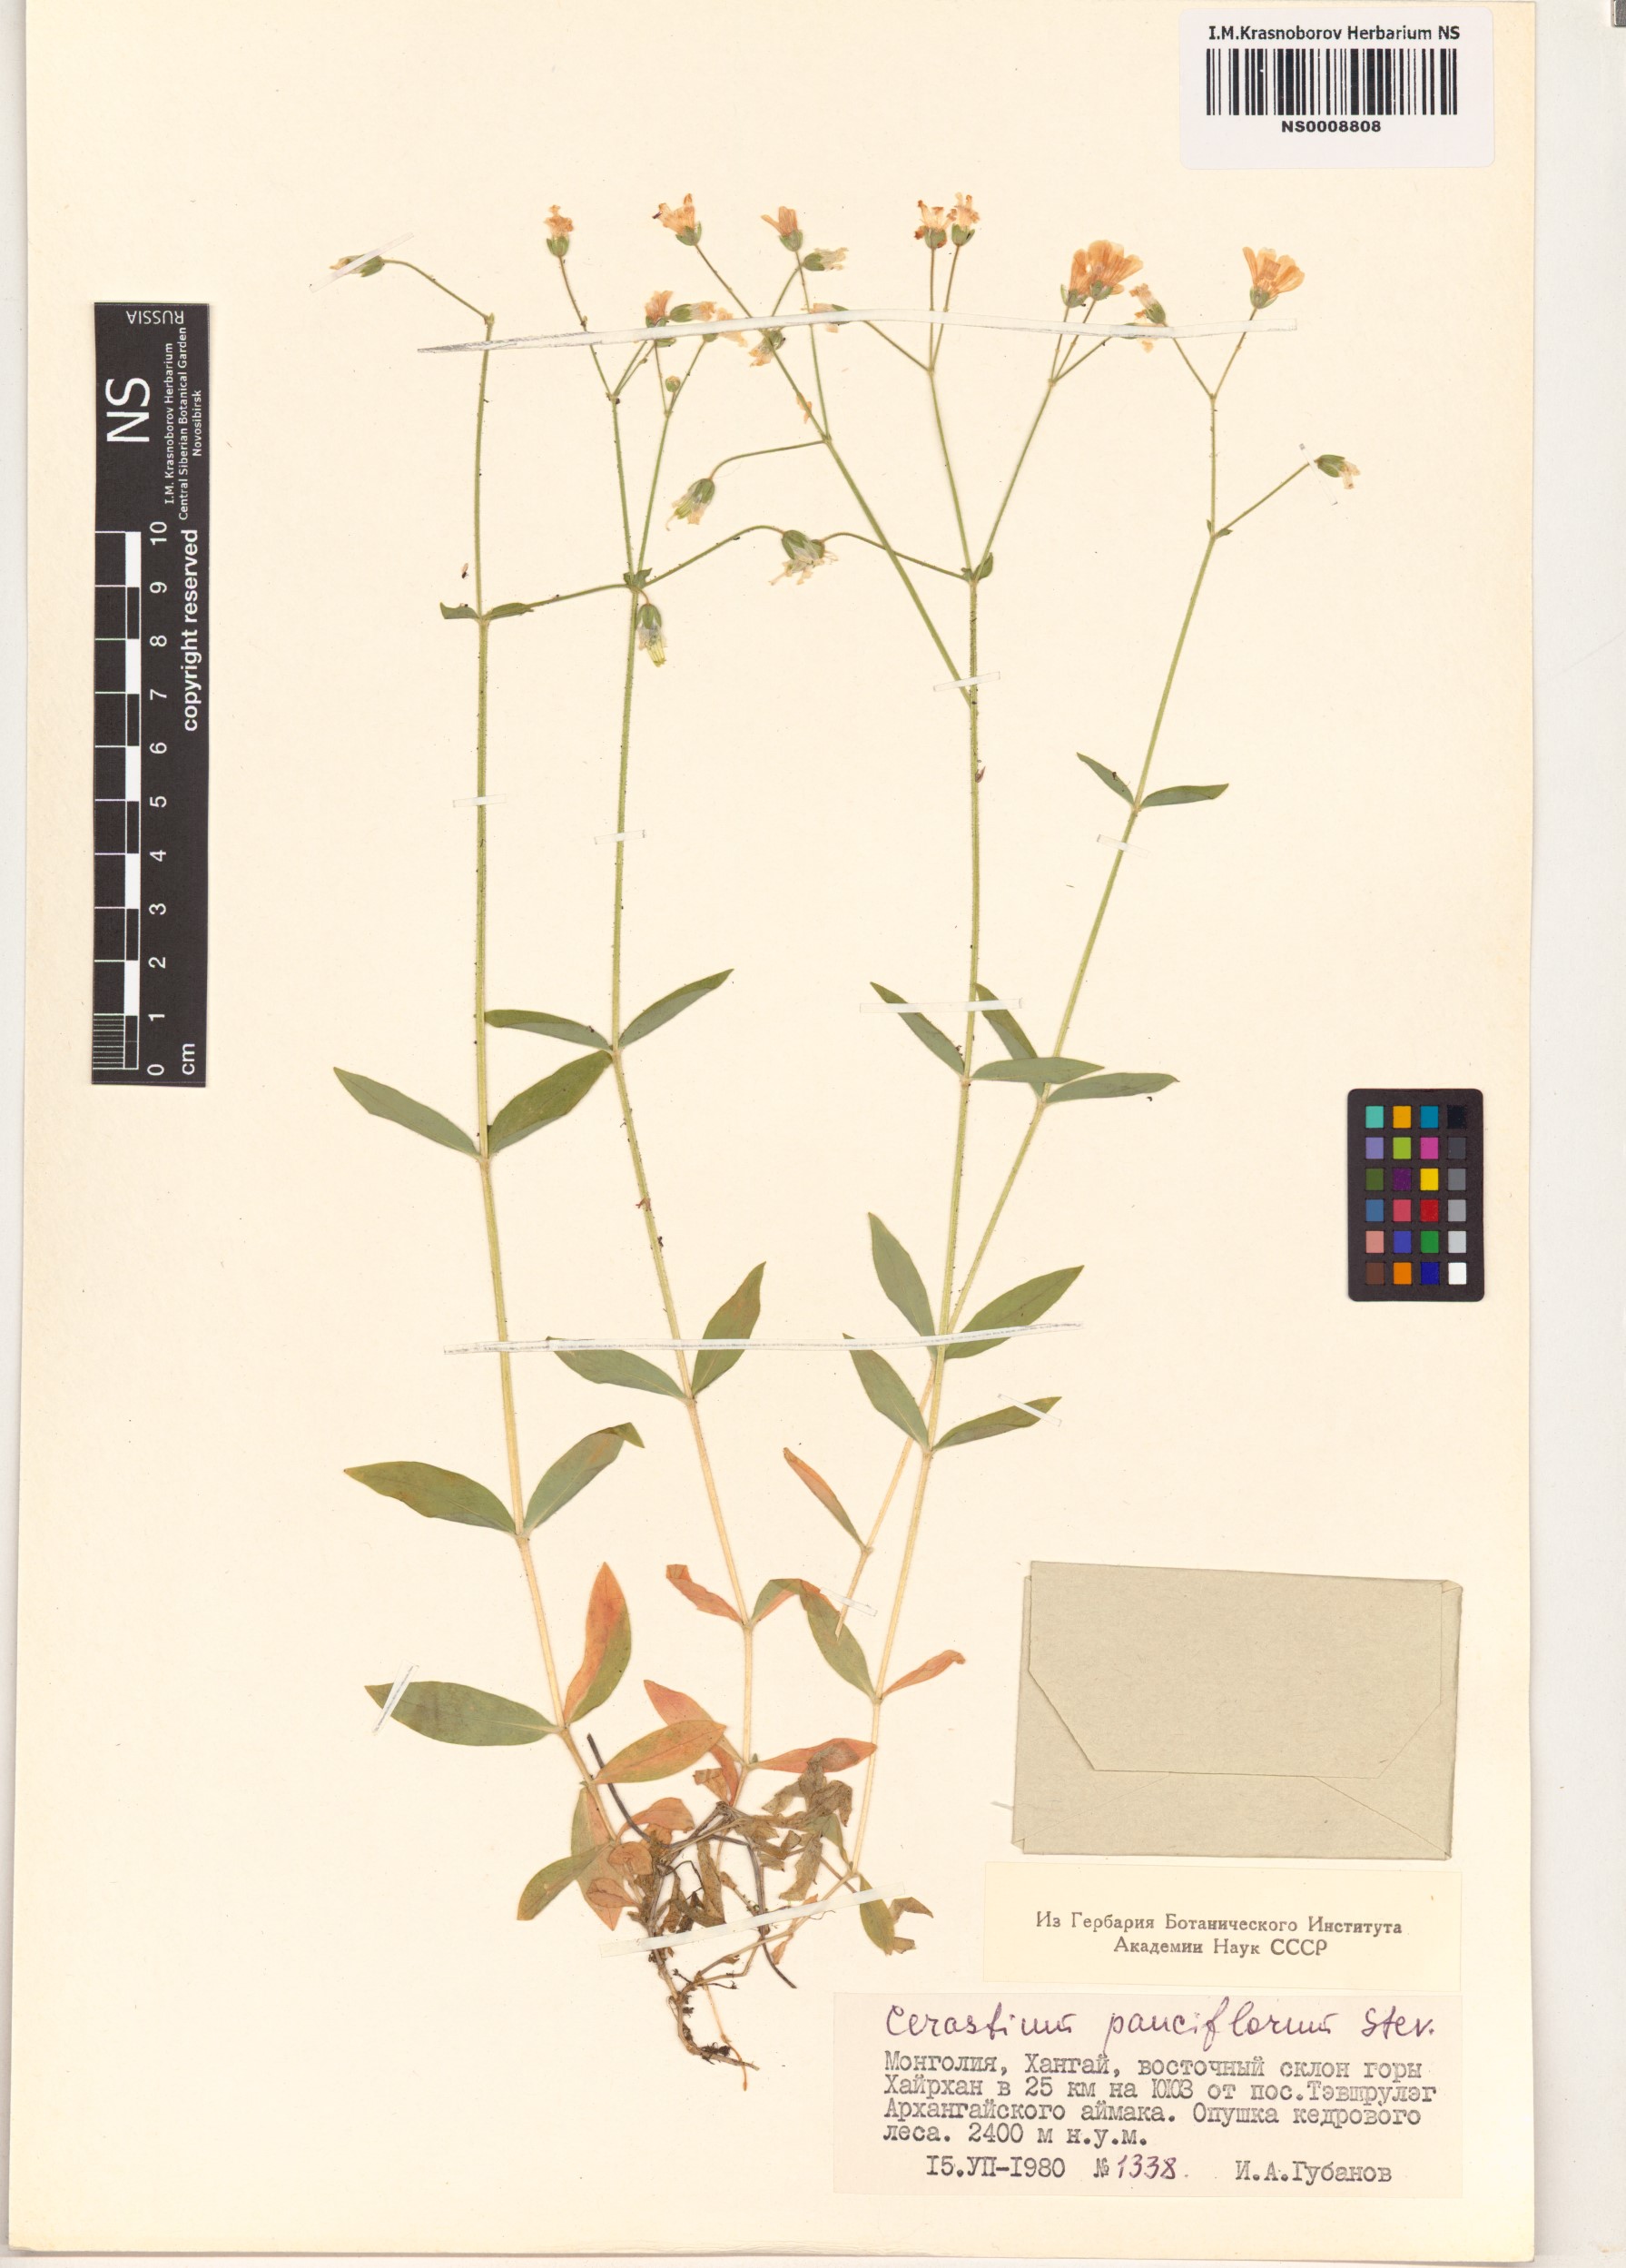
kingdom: Plantae
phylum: Tracheophyta
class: Magnoliopsida
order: Caryophyllales
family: Caryophyllaceae
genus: Cerastium
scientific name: Cerastium pauciflorum
